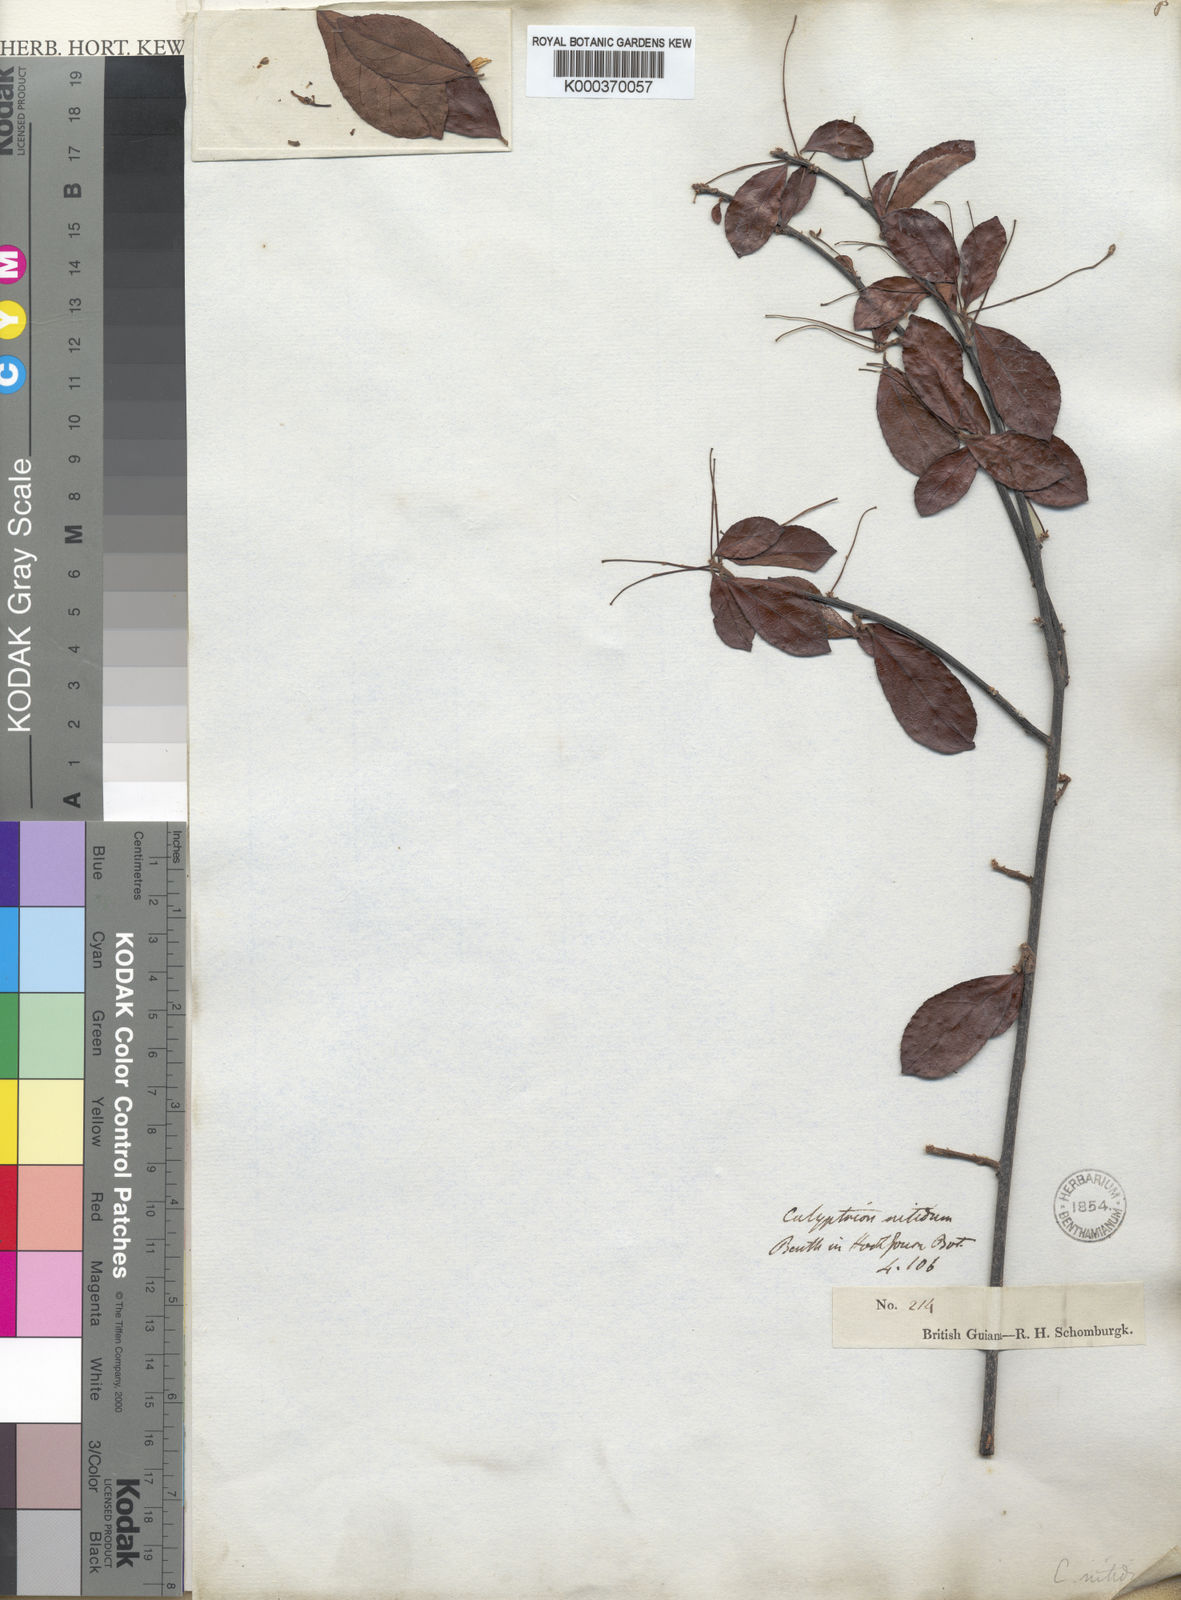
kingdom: Plantae
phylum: Tracheophyta
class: Magnoliopsida
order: Malpighiales
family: Violaceae
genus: Calyptrion
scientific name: Calyptrion arboreum
